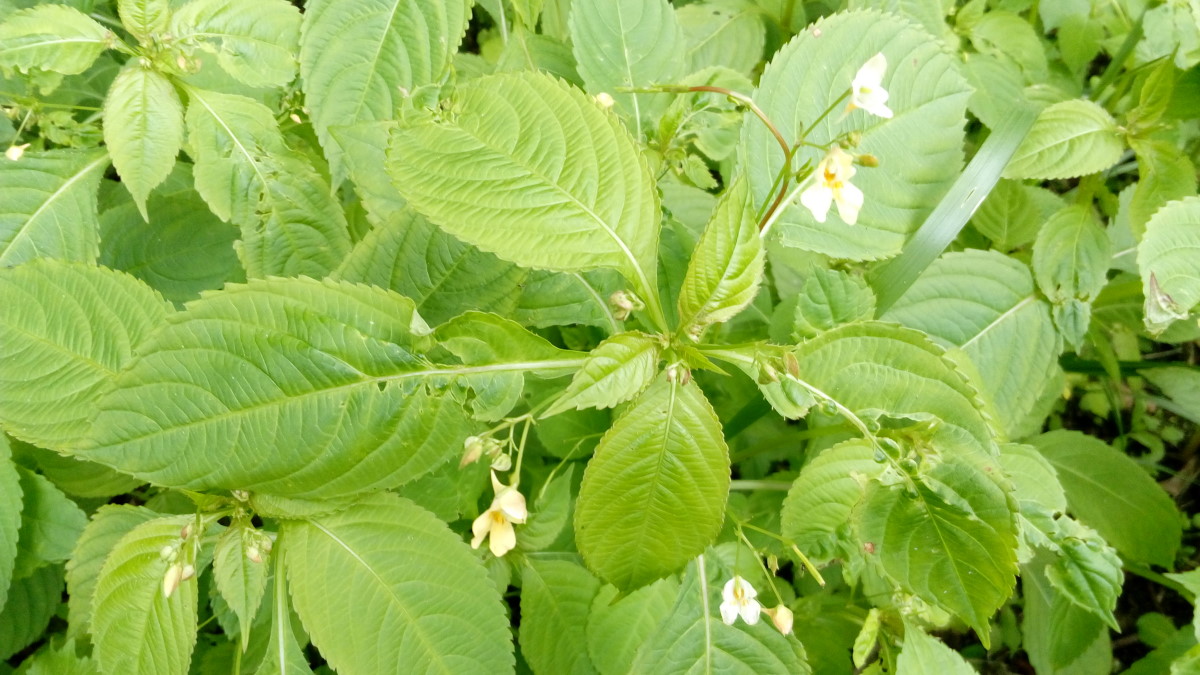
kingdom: Plantae
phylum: Tracheophyta
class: Magnoliopsida
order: Ericales
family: Balsaminaceae
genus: Impatiens
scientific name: Impatiens parviflora
